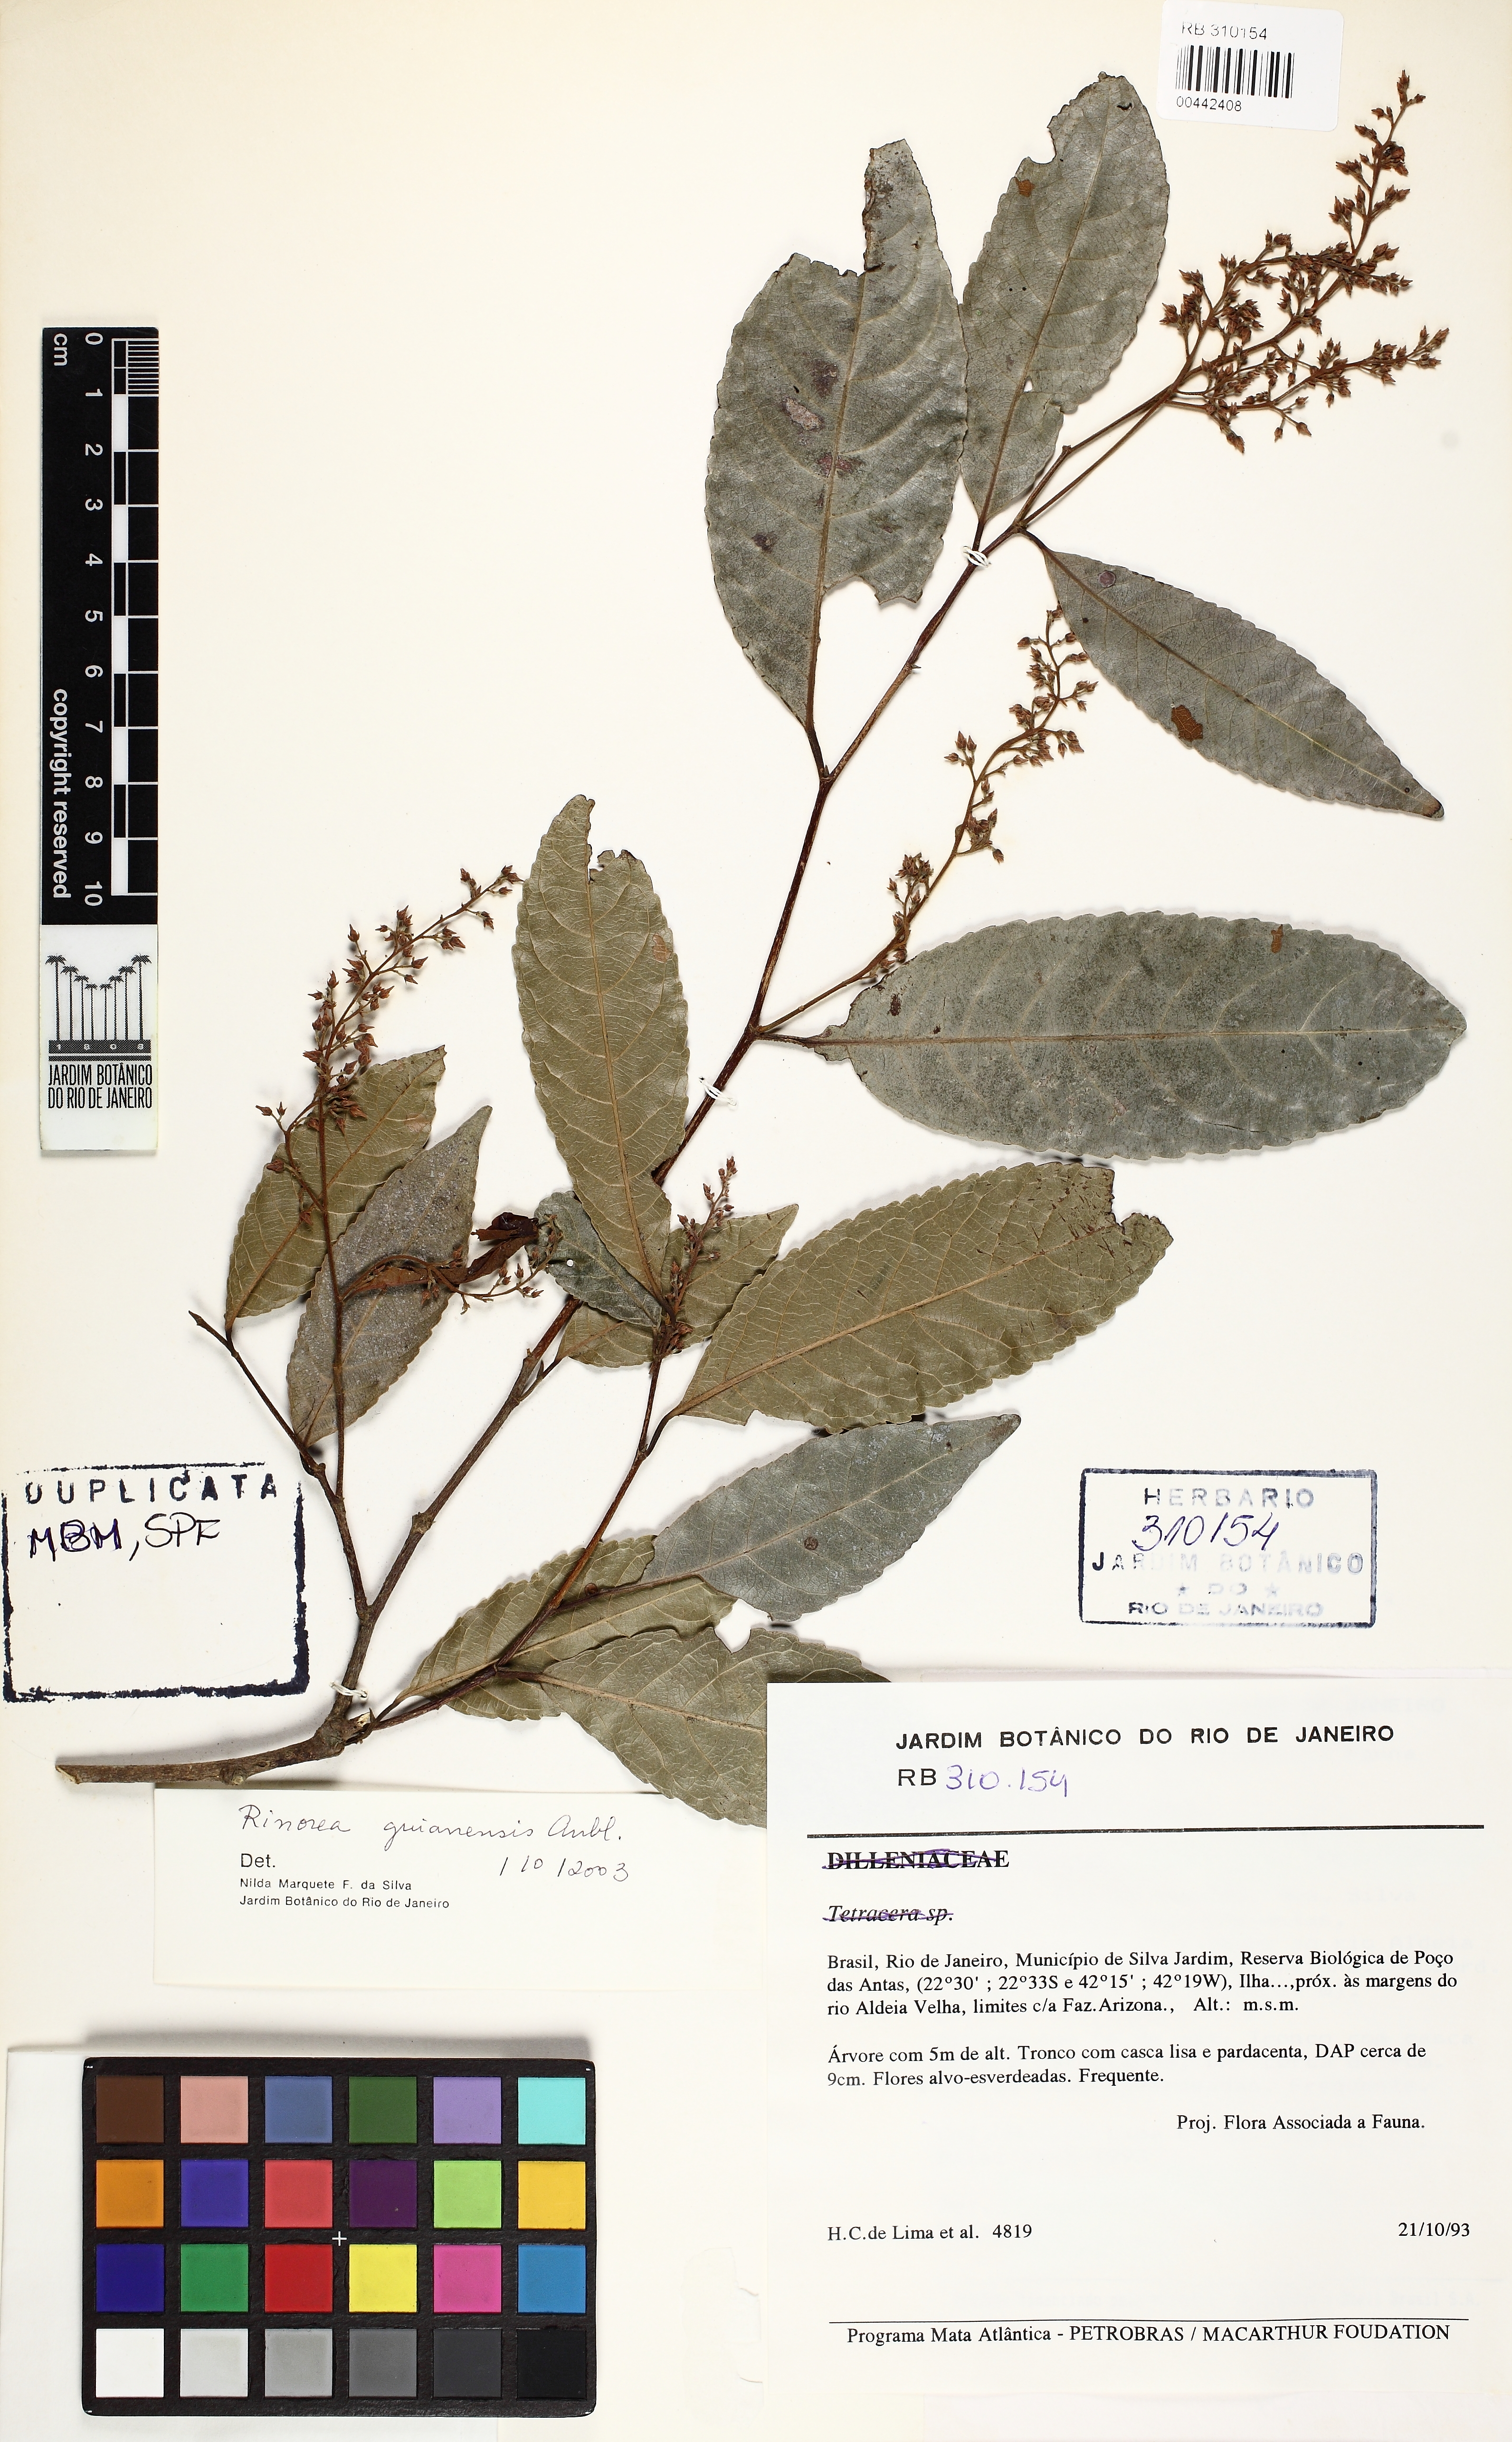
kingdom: Plantae
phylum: Tracheophyta
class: Magnoliopsida
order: Malpighiales
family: Violaceae
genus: Rinorea
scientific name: Rinorea guianensis
